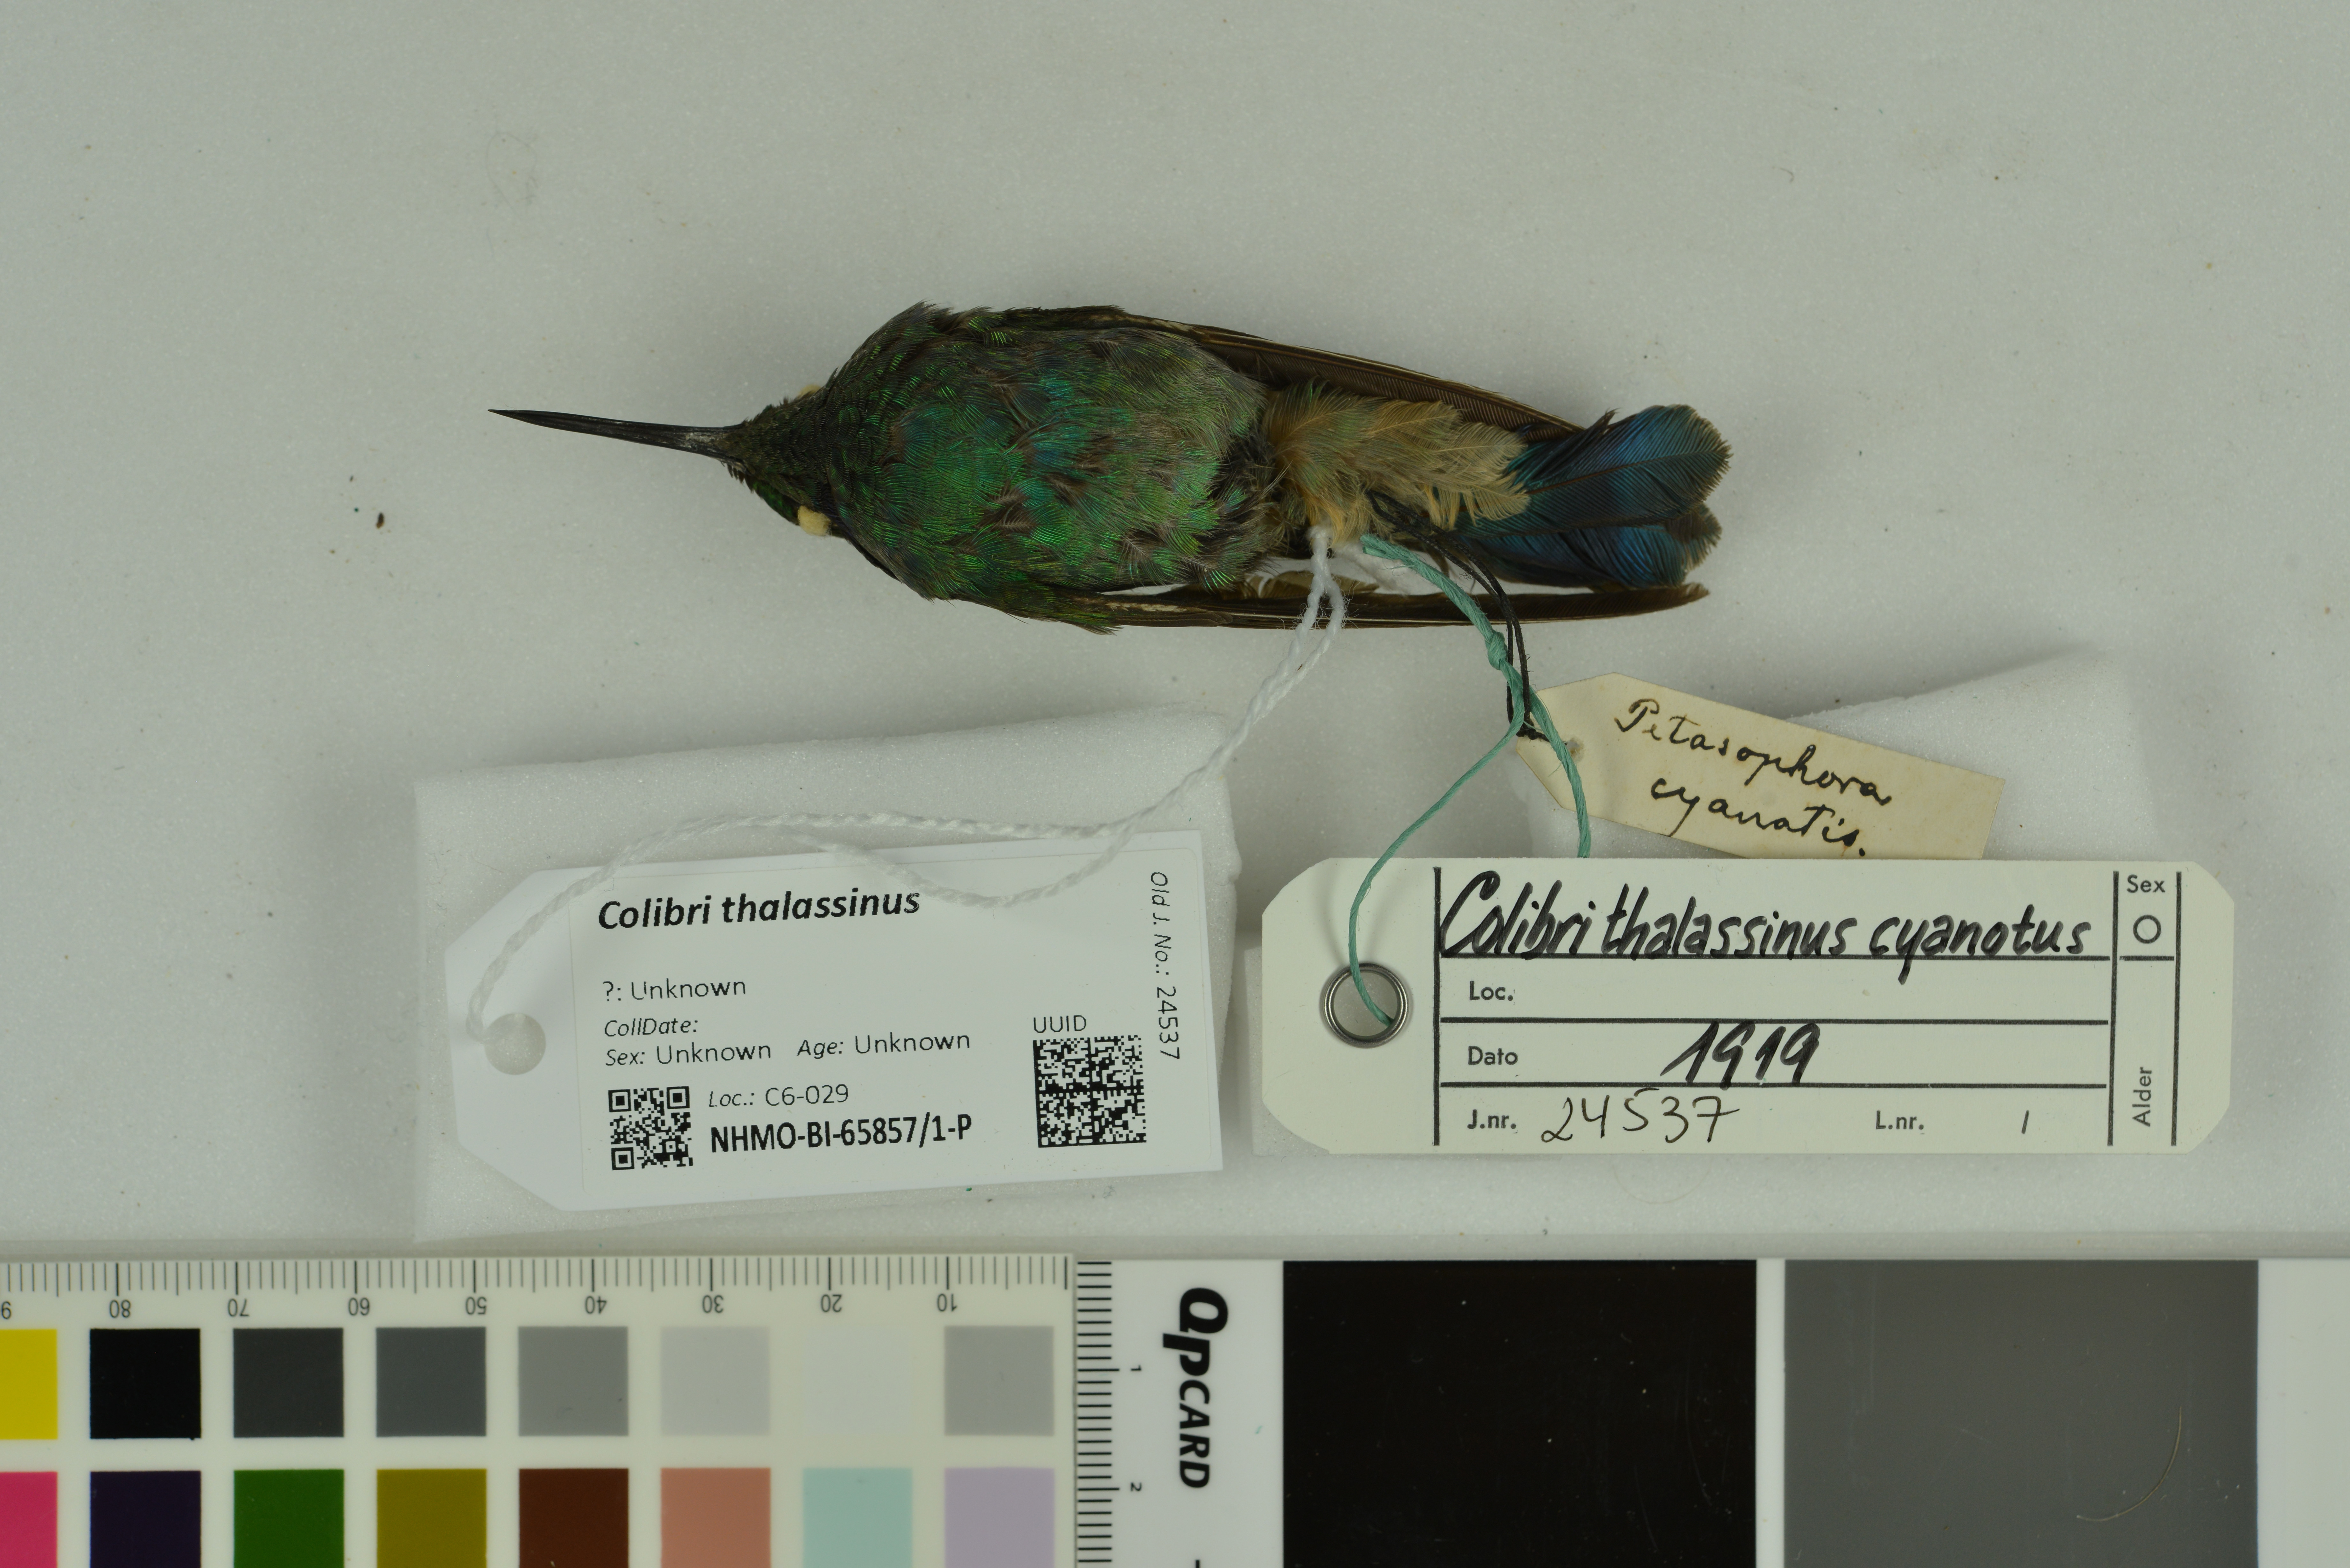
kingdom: Animalia
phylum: Chordata
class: Aves
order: Apodiformes
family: Trochilidae
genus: Colibri
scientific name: Colibri thalassinus
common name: Green violetear
